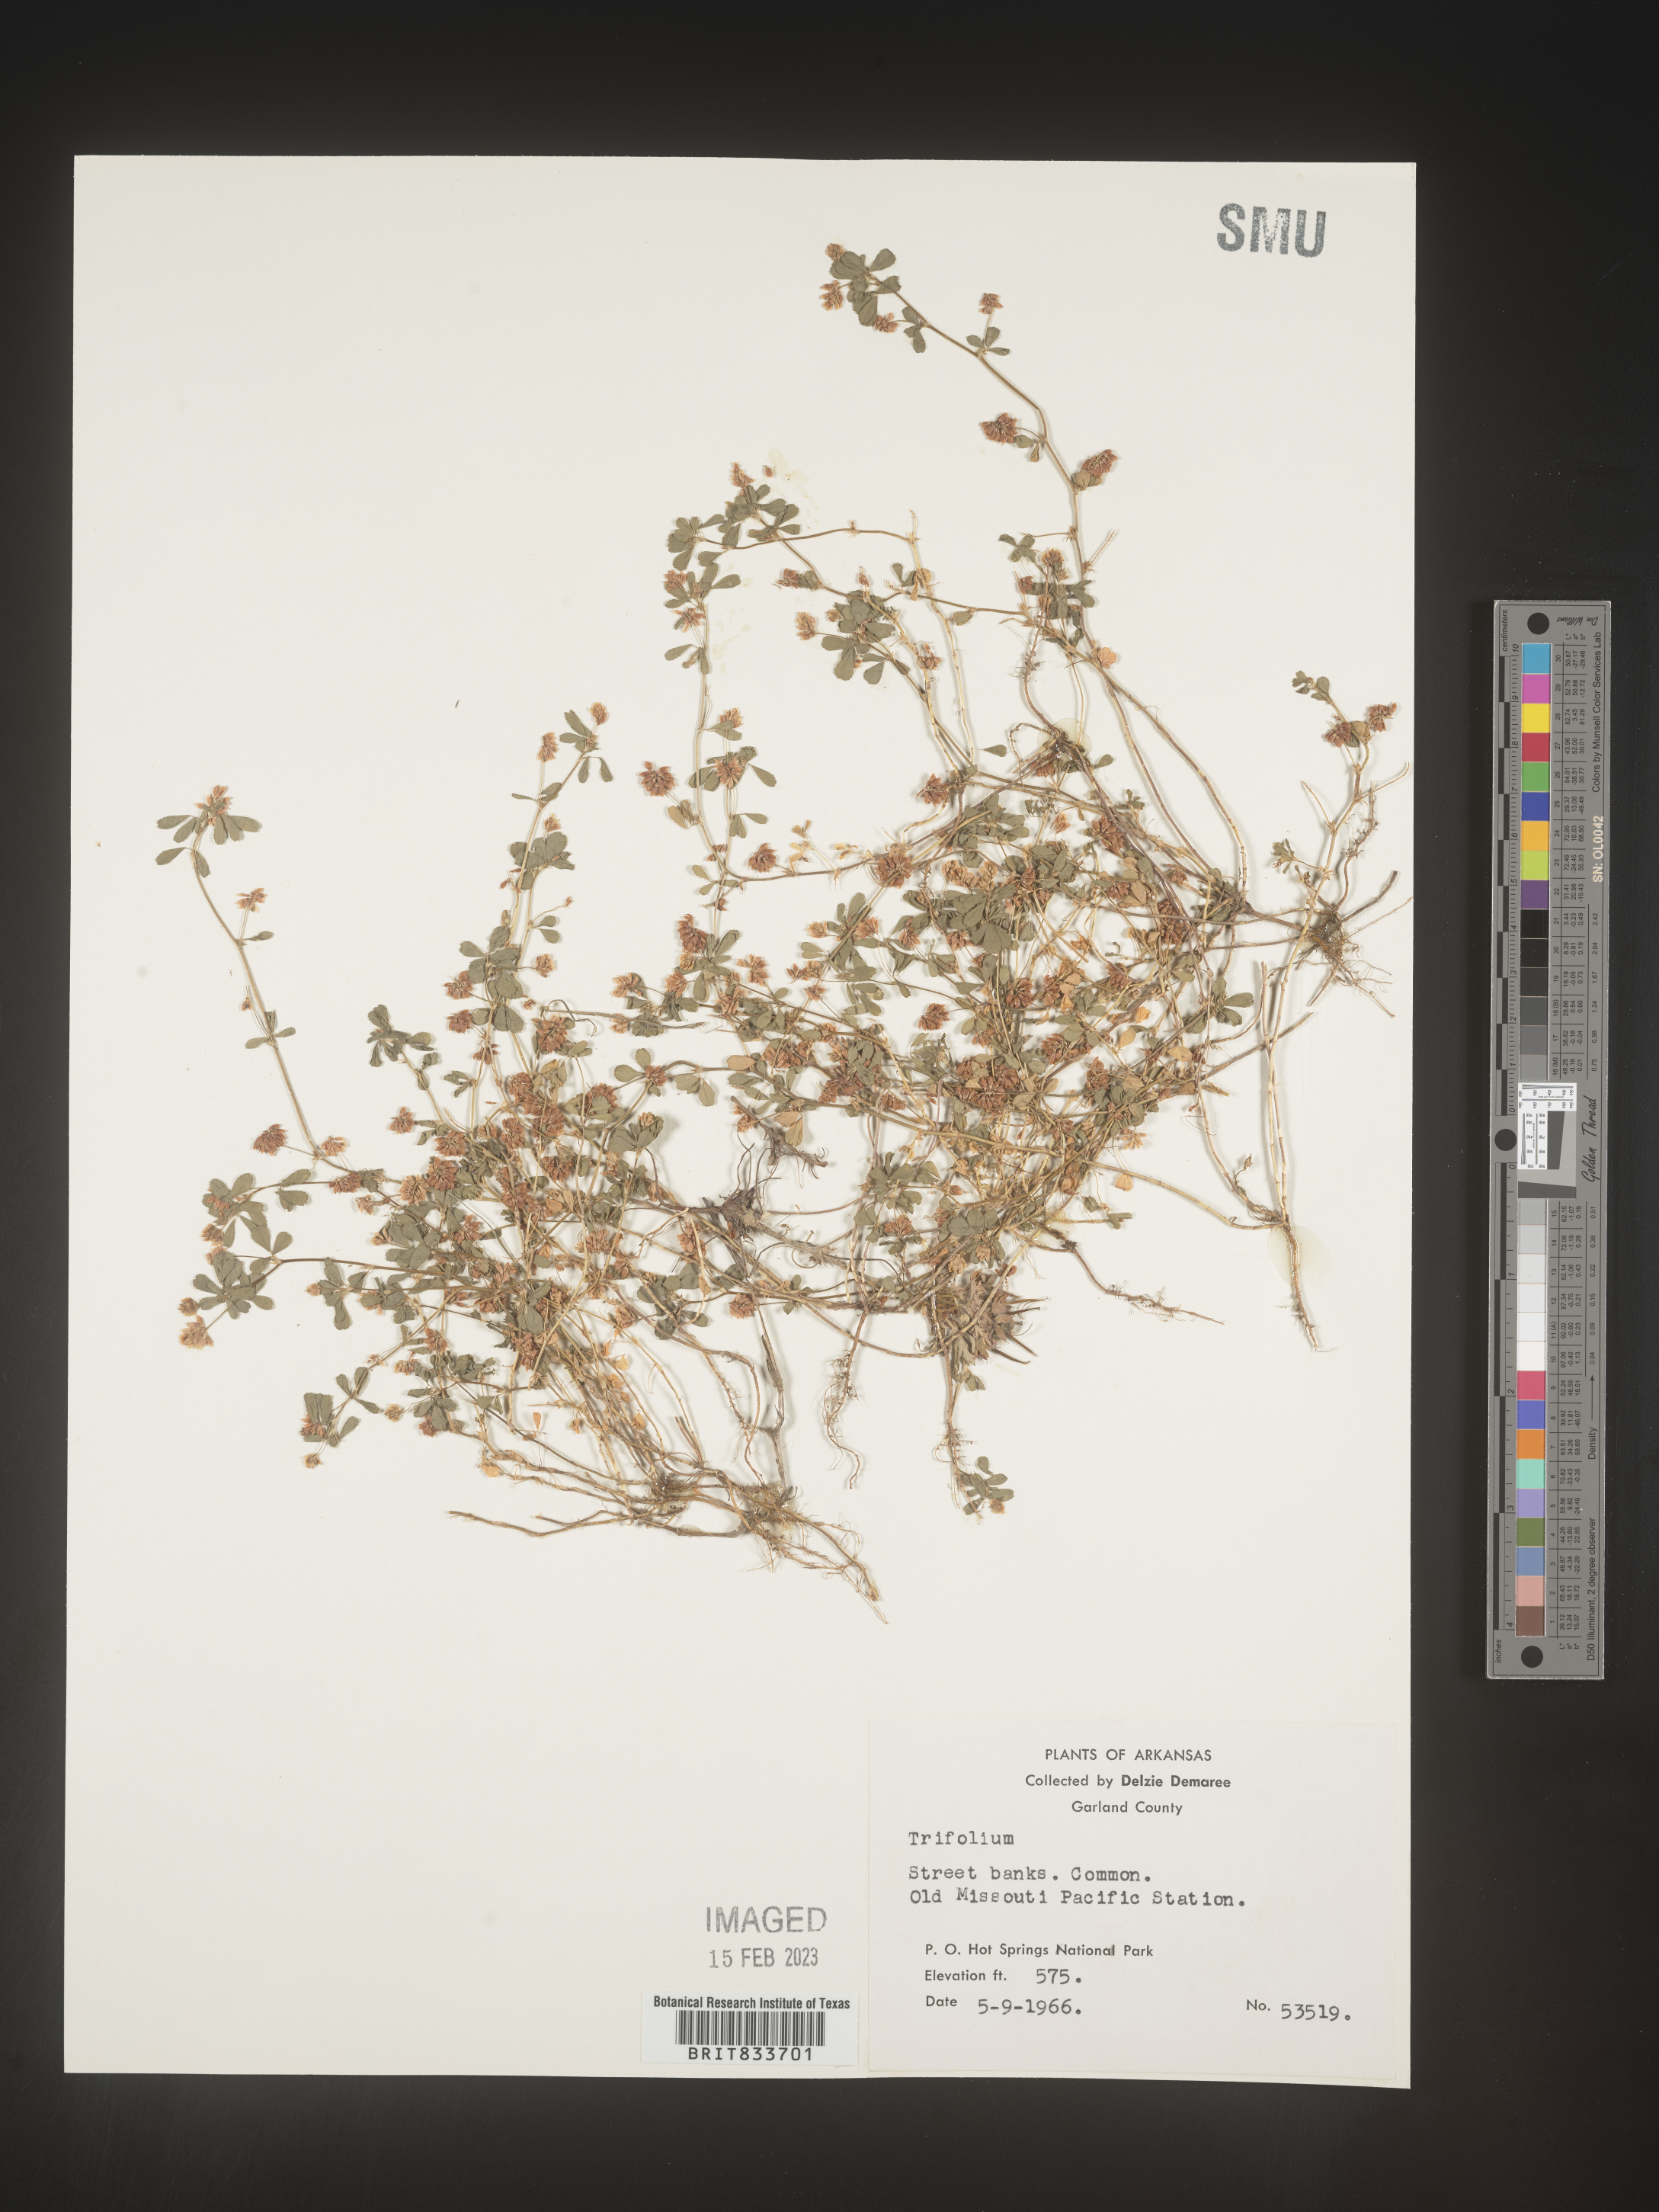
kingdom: Plantae
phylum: Tracheophyta
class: Magnoliopsida
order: Fabales
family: Fabaceae
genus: Trifolium
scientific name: Trifolium dubium
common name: Suckling clover
